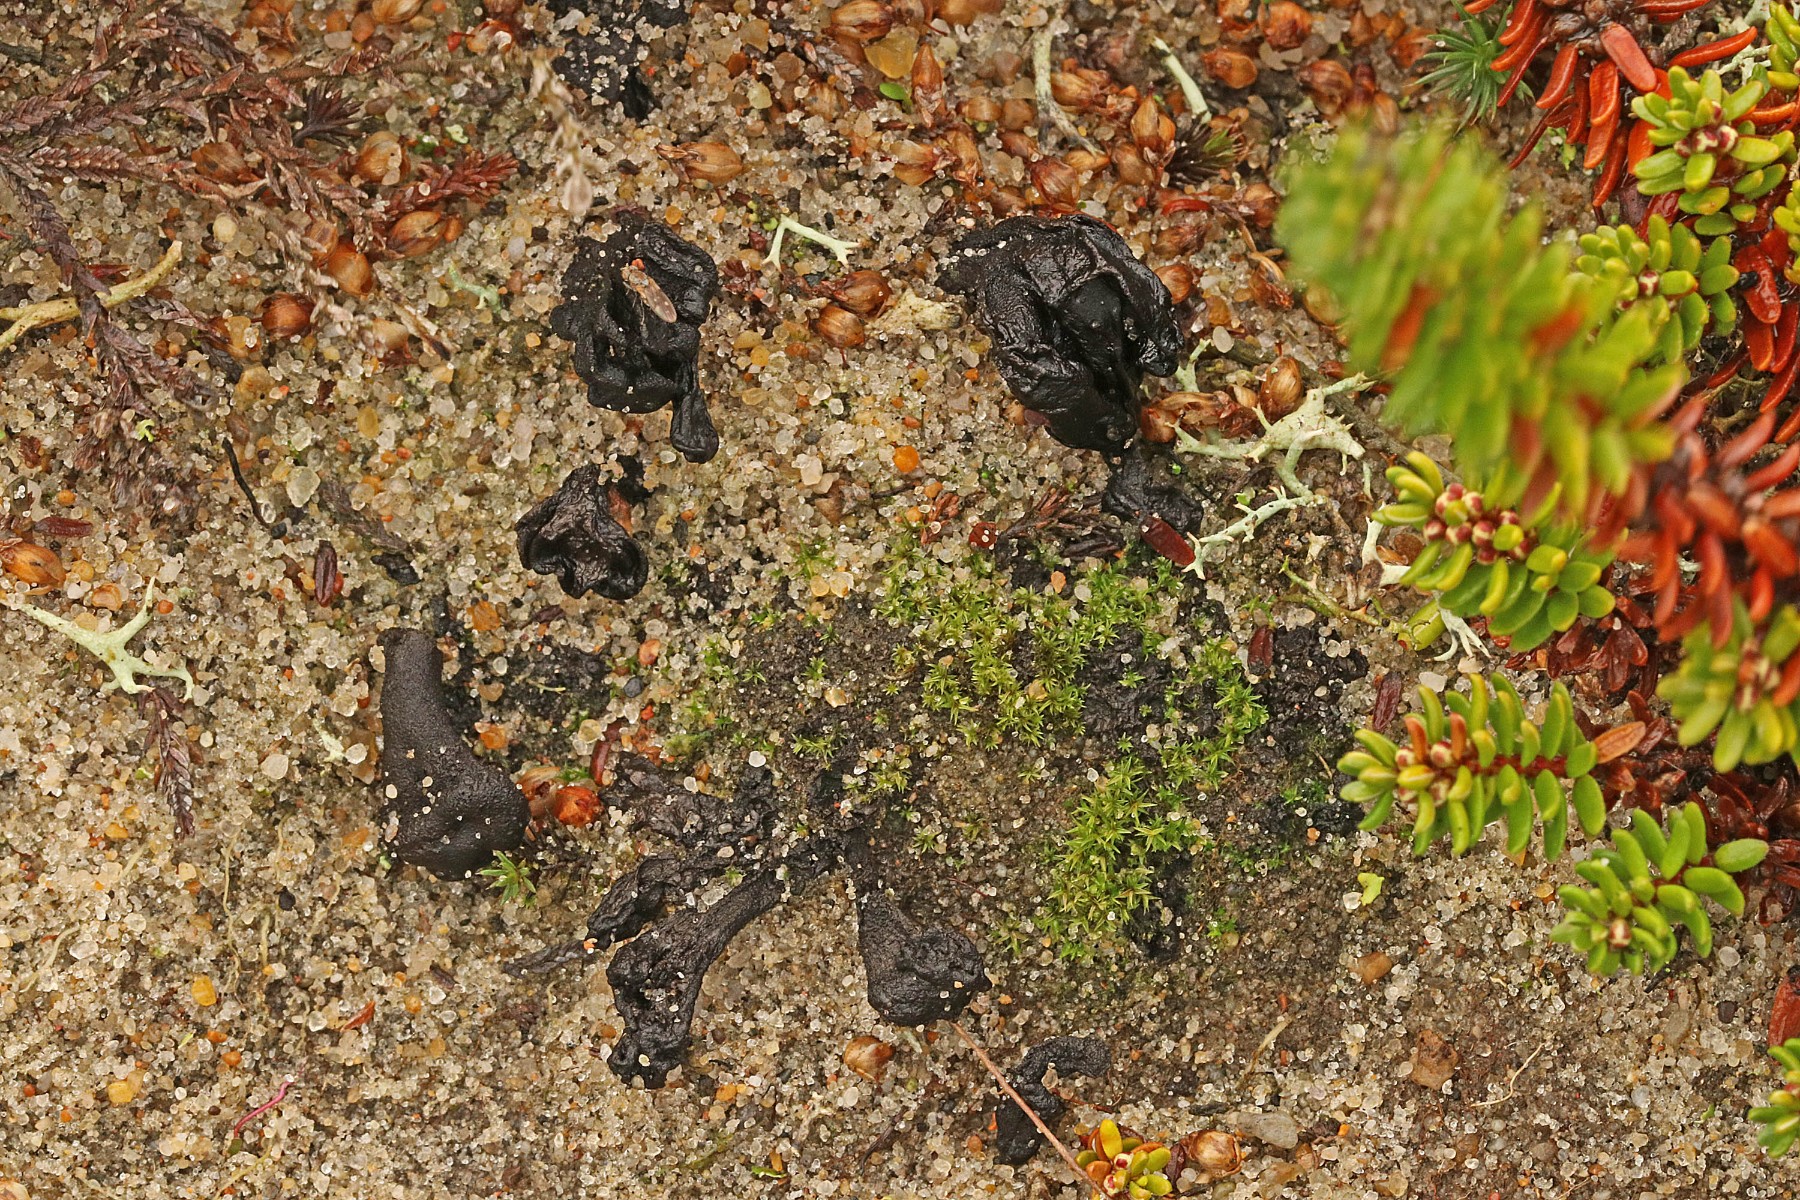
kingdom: Fungi
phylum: Ascomycota
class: Geoglossomycetes
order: Geoglossales
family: Geoglossaceae
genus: Sabuloglossum
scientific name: Sabuloglossum arenarium
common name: klit-jordtunge
